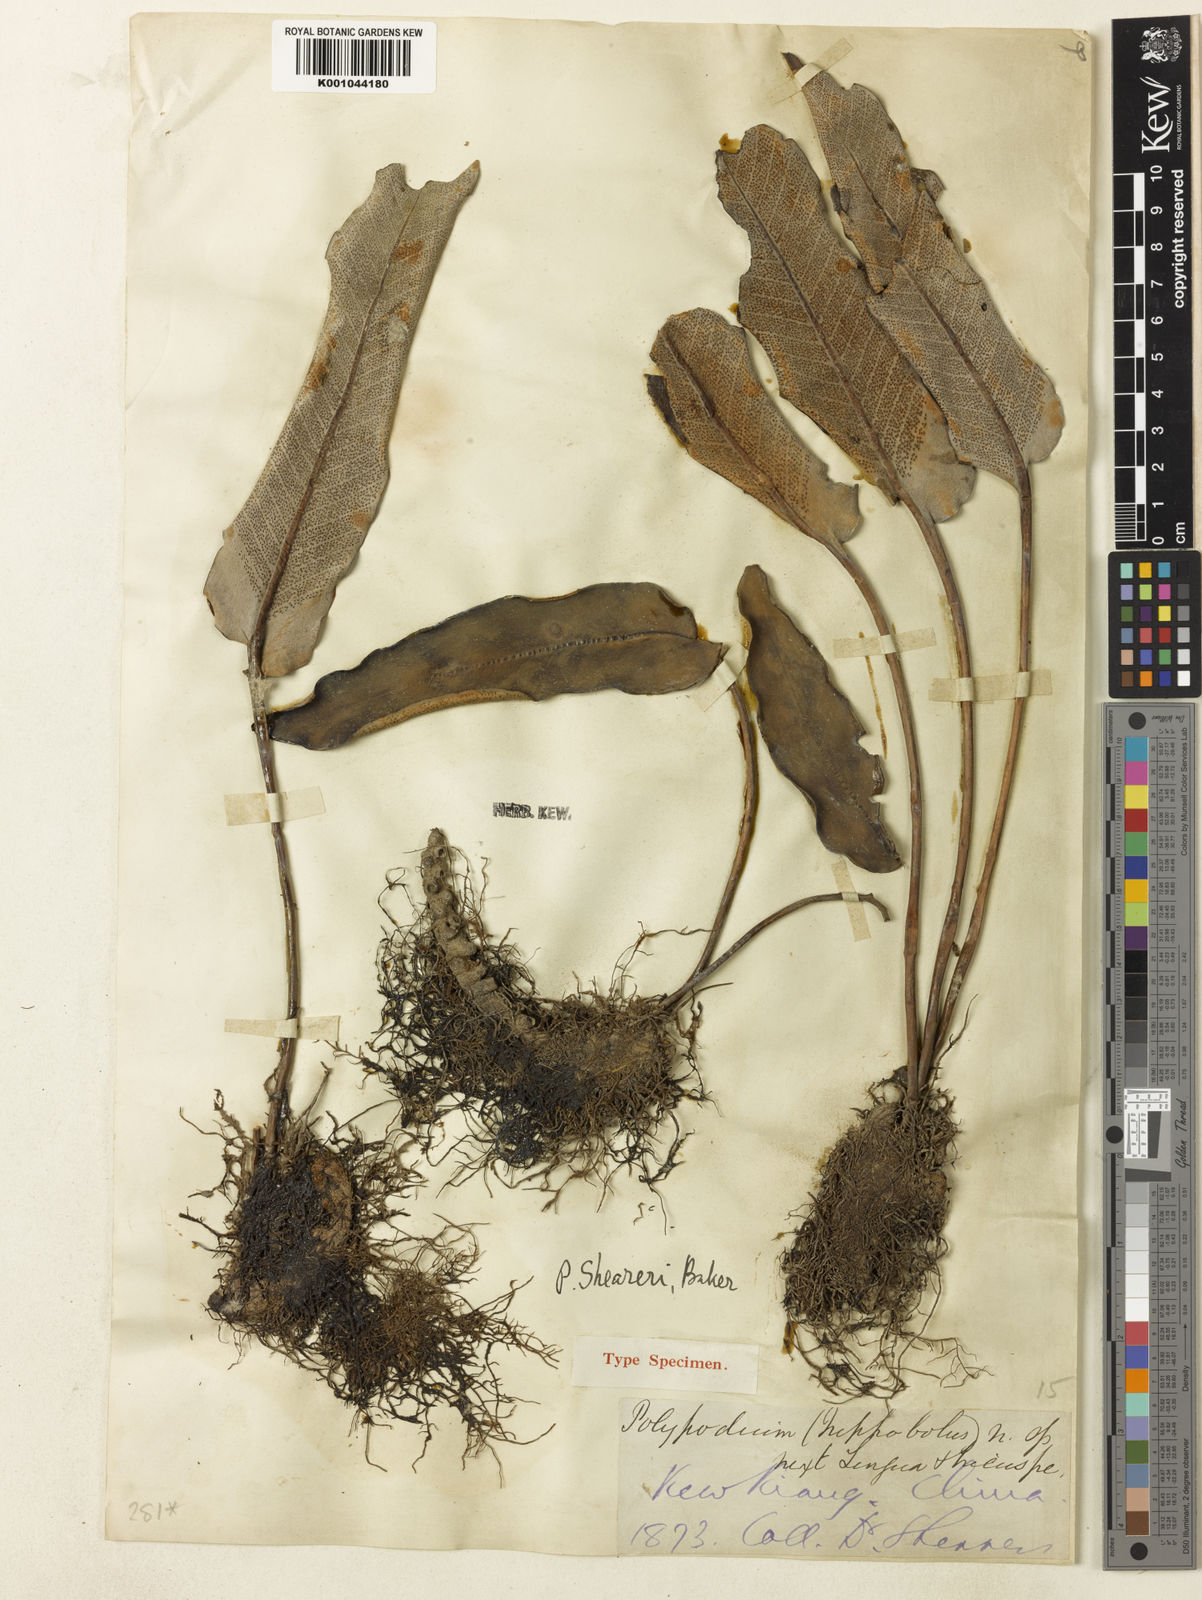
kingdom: Plantae
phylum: Tracheophyta
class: Polypodiopsida
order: Polypodiales
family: Polypodiaceae
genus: Pyrrosia
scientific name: Pyrrosia sheareri
